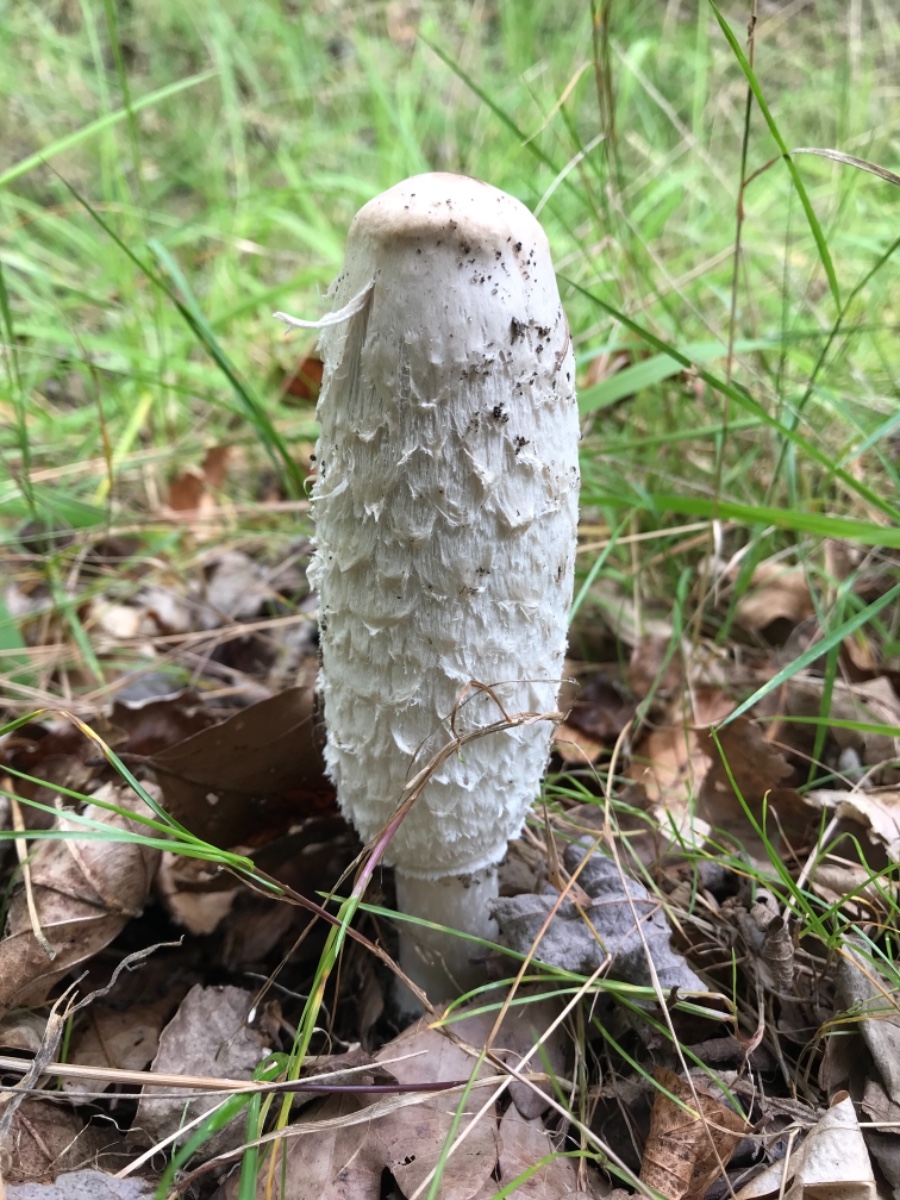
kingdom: Fungi
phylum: Basidiomycota
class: Agaricomycetes
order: Agaricales
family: Agaricaceae
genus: Coprinus
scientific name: Coprinus comatus
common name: stor parykhat
